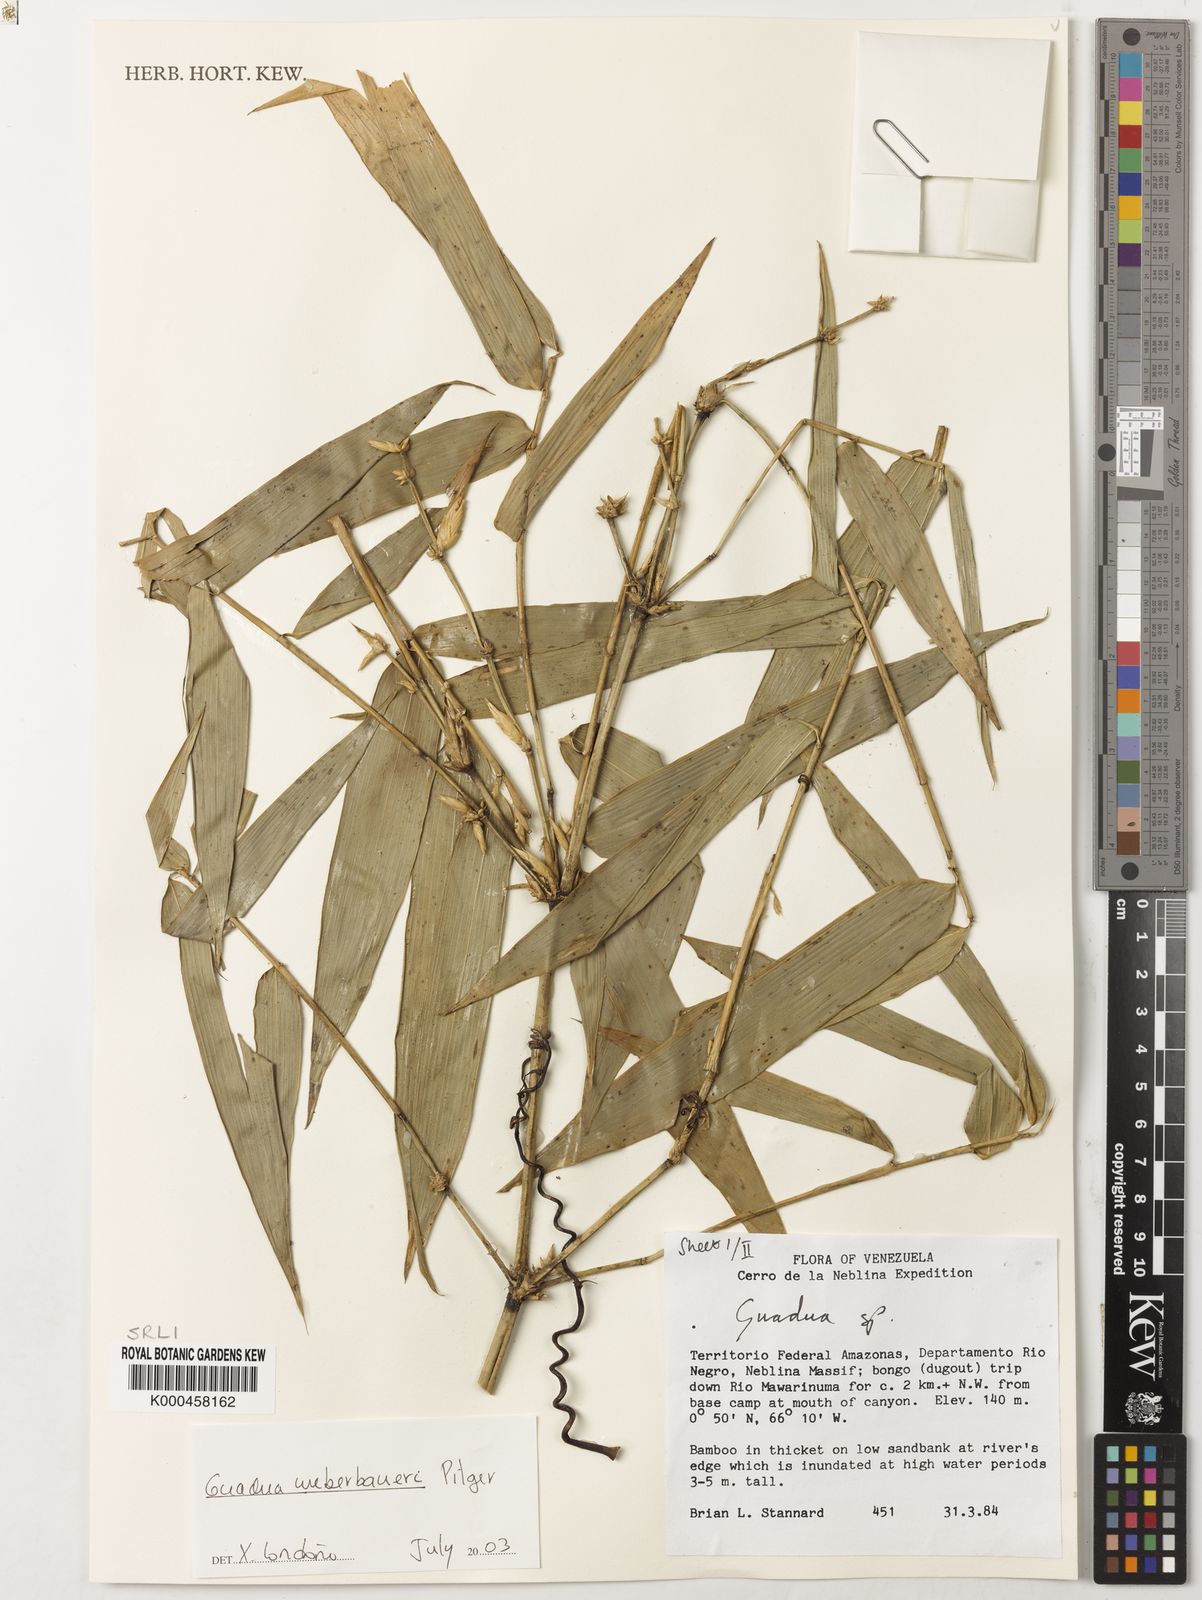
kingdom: Plantae
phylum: Tracheophyta
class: Liliopsida
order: Poales
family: Poaceae
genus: Guadua
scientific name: Guadua weberbaueri
